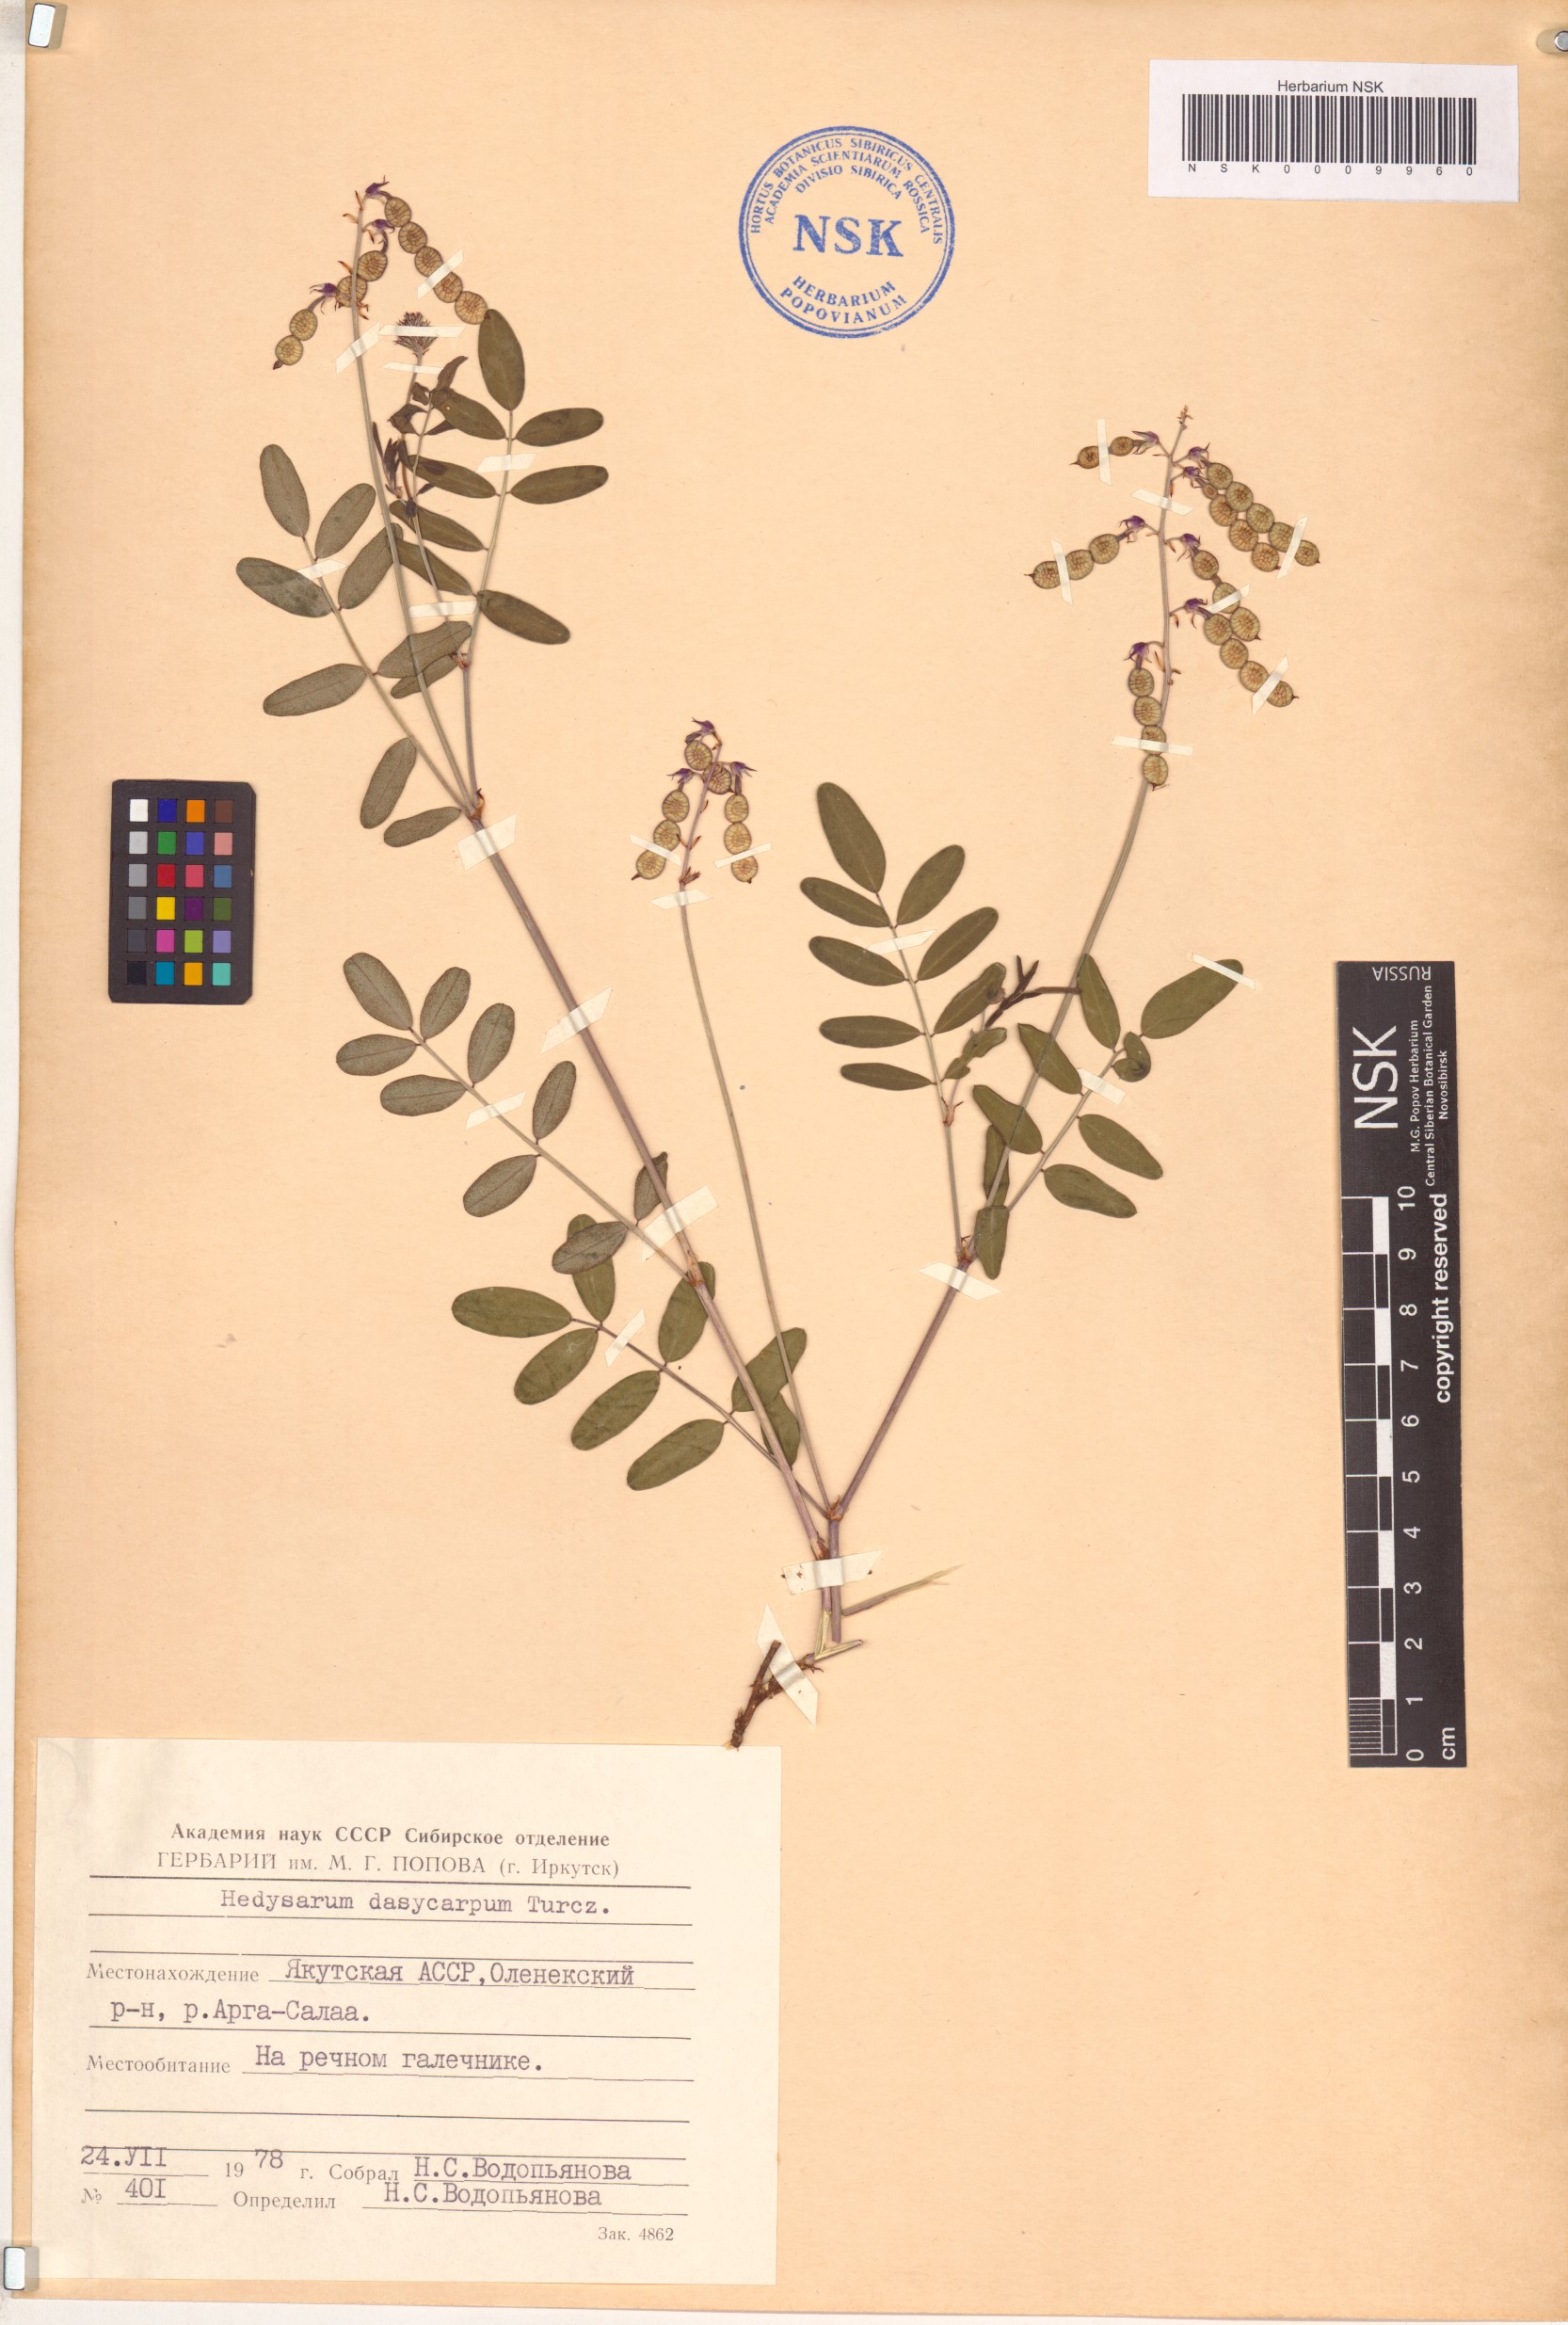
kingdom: Plantae
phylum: Tracheophyta
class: Magnoliopsida
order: Fabales
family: Fabaceae
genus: Hedysarum
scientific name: Hedysarum dasycarpum
